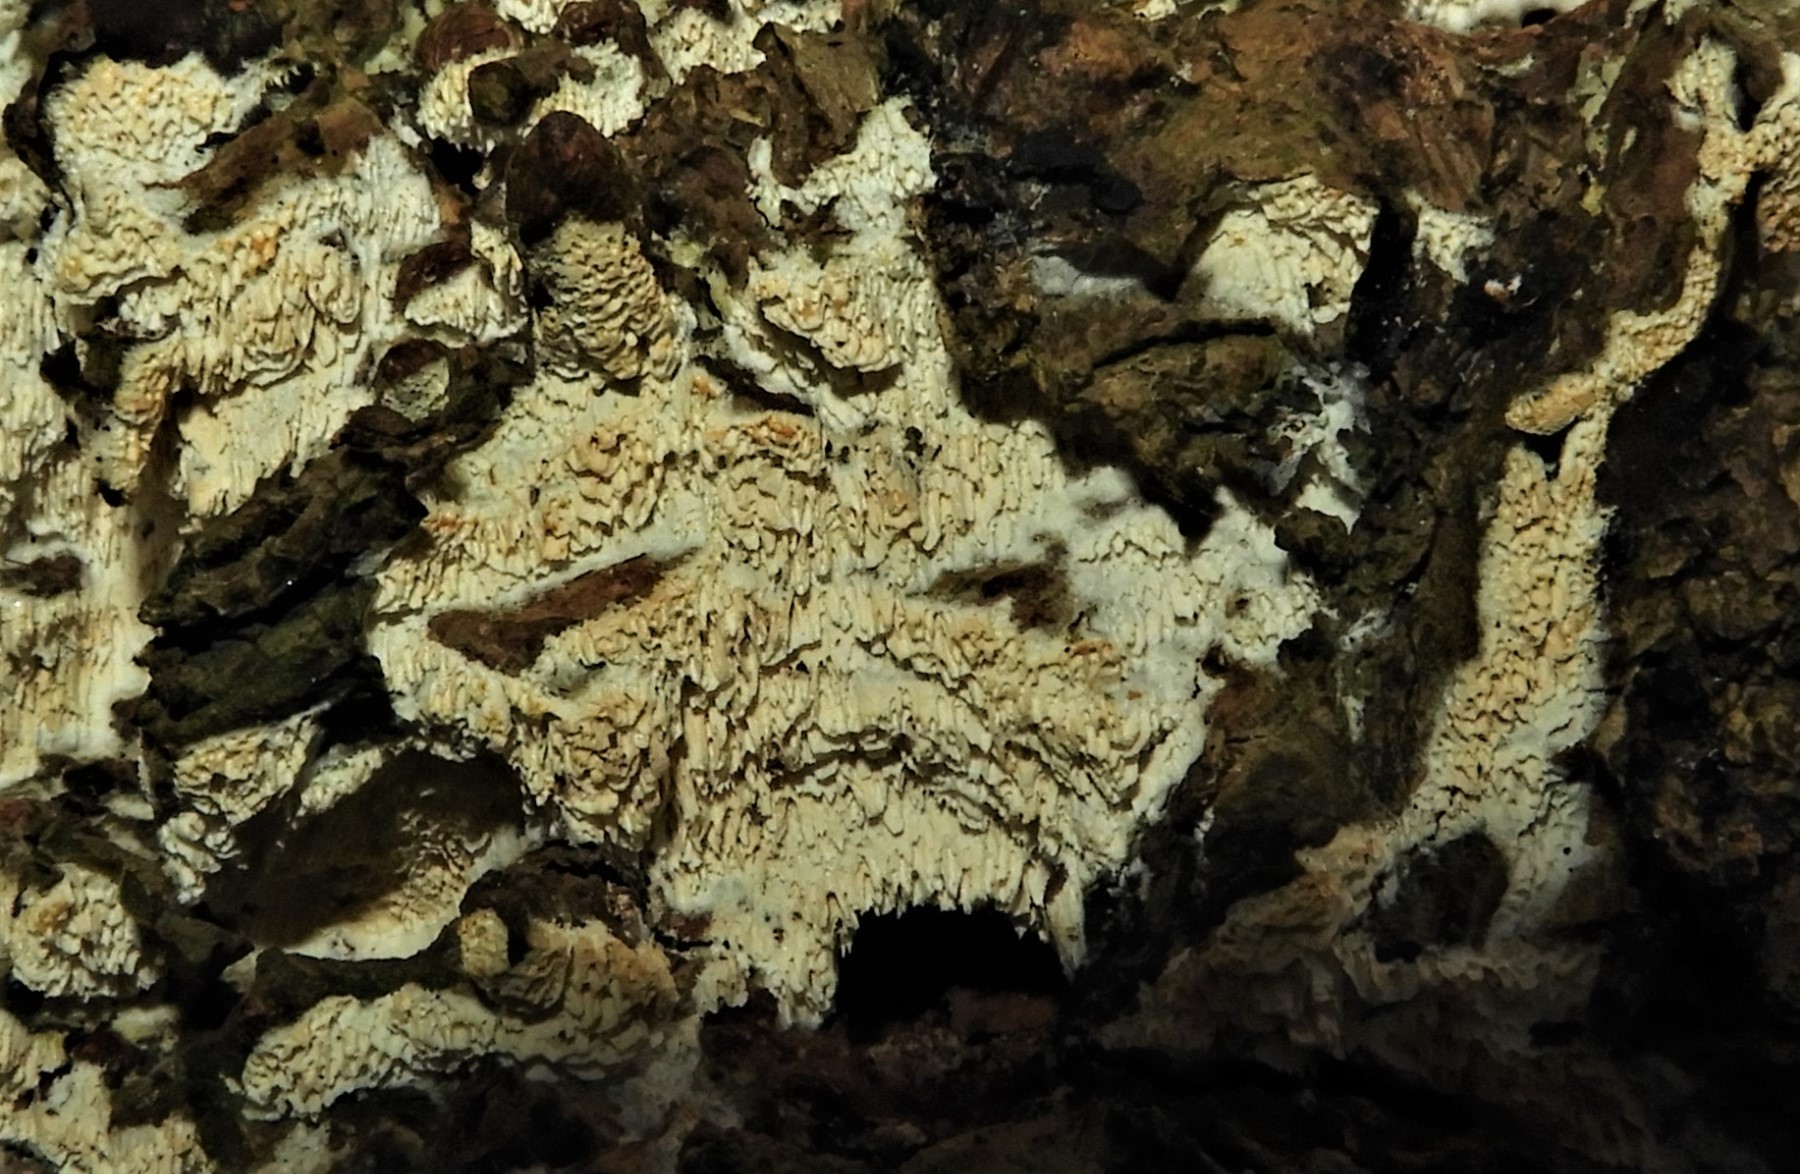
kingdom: Fungi
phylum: Basidiomycota
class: Agaricomycetes
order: Corticiales
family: Corticiaceae
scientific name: Corticiaceae
